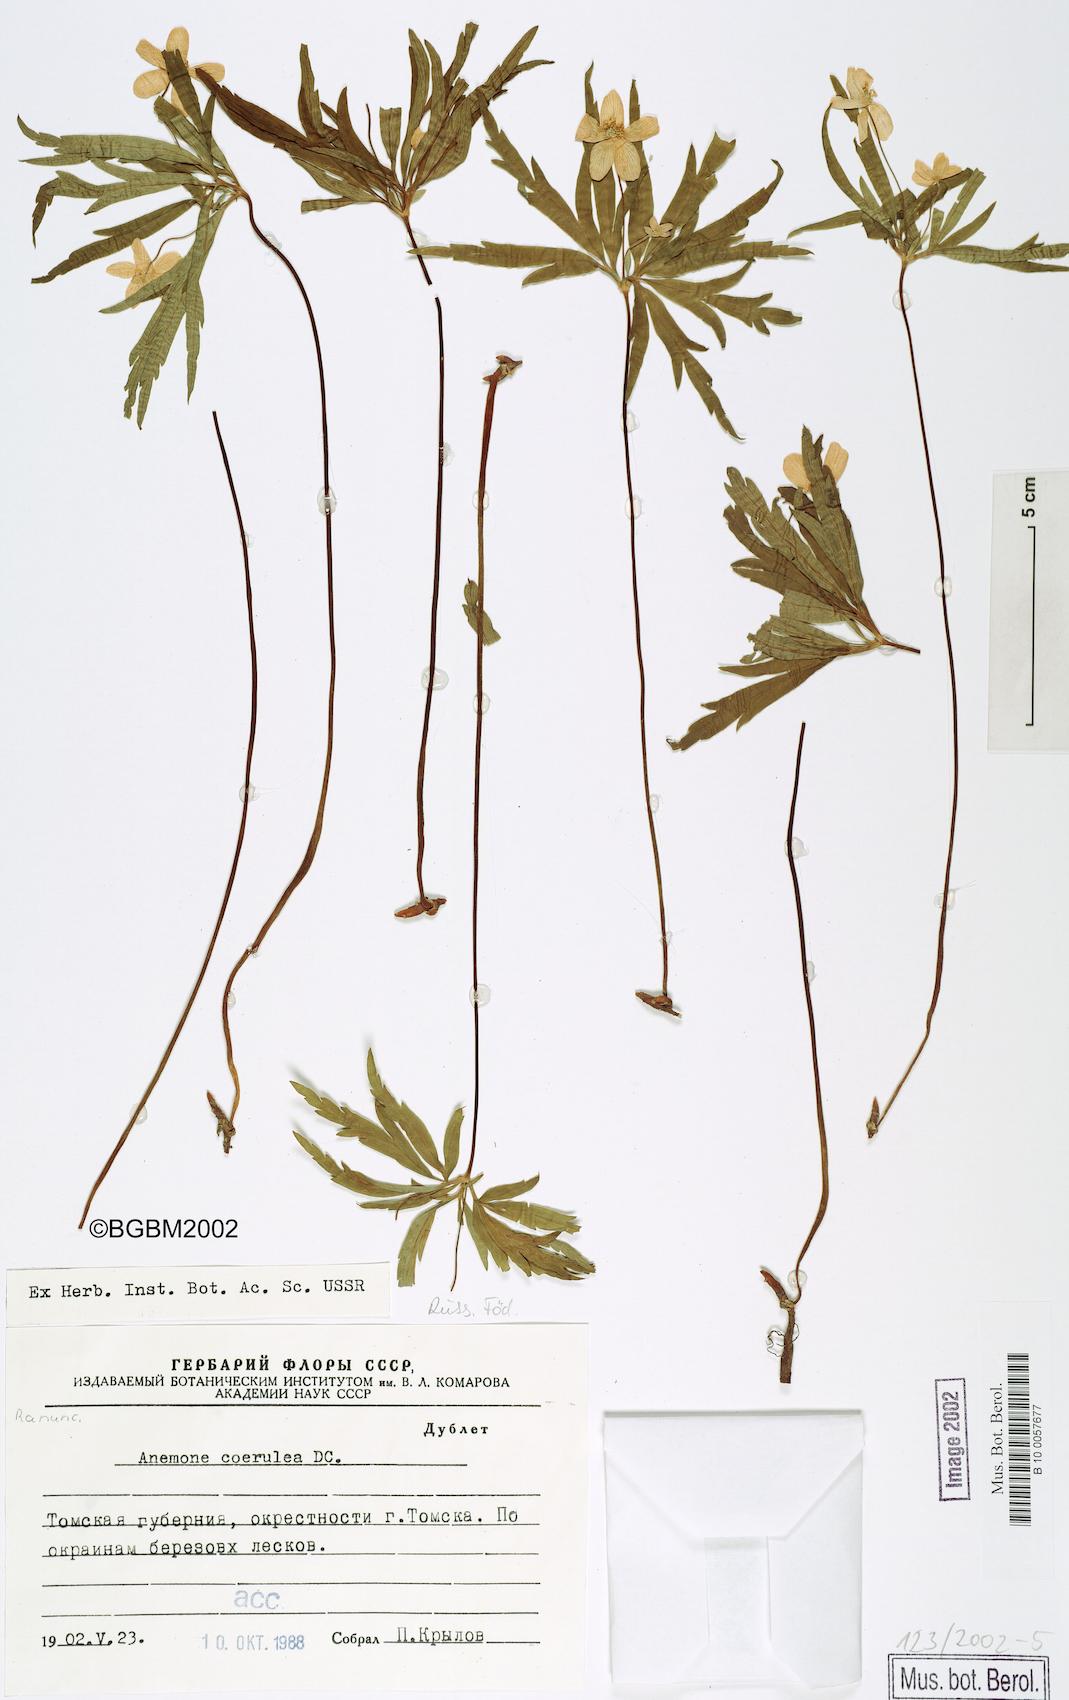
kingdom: Plantae
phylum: Tracheophyta
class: Magnoliopsida
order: Ranunculales
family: Ranunculaceae
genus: Anemone
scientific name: Anemone caerulea
